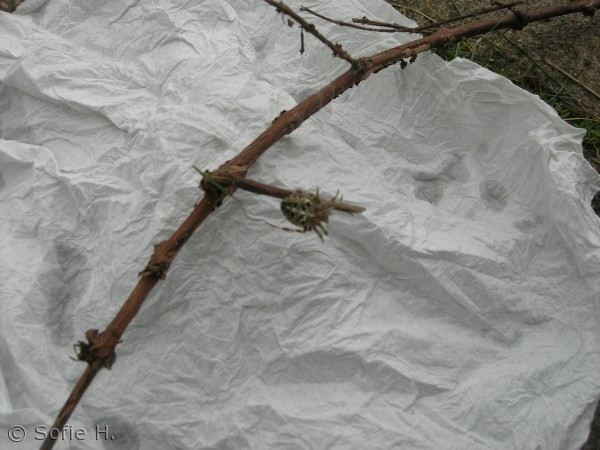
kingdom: Animalia
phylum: Arthropoda
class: Arachnida
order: Araneae
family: Araneidae
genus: Araneus
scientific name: Araneus diadematus
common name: Korsedderkop
